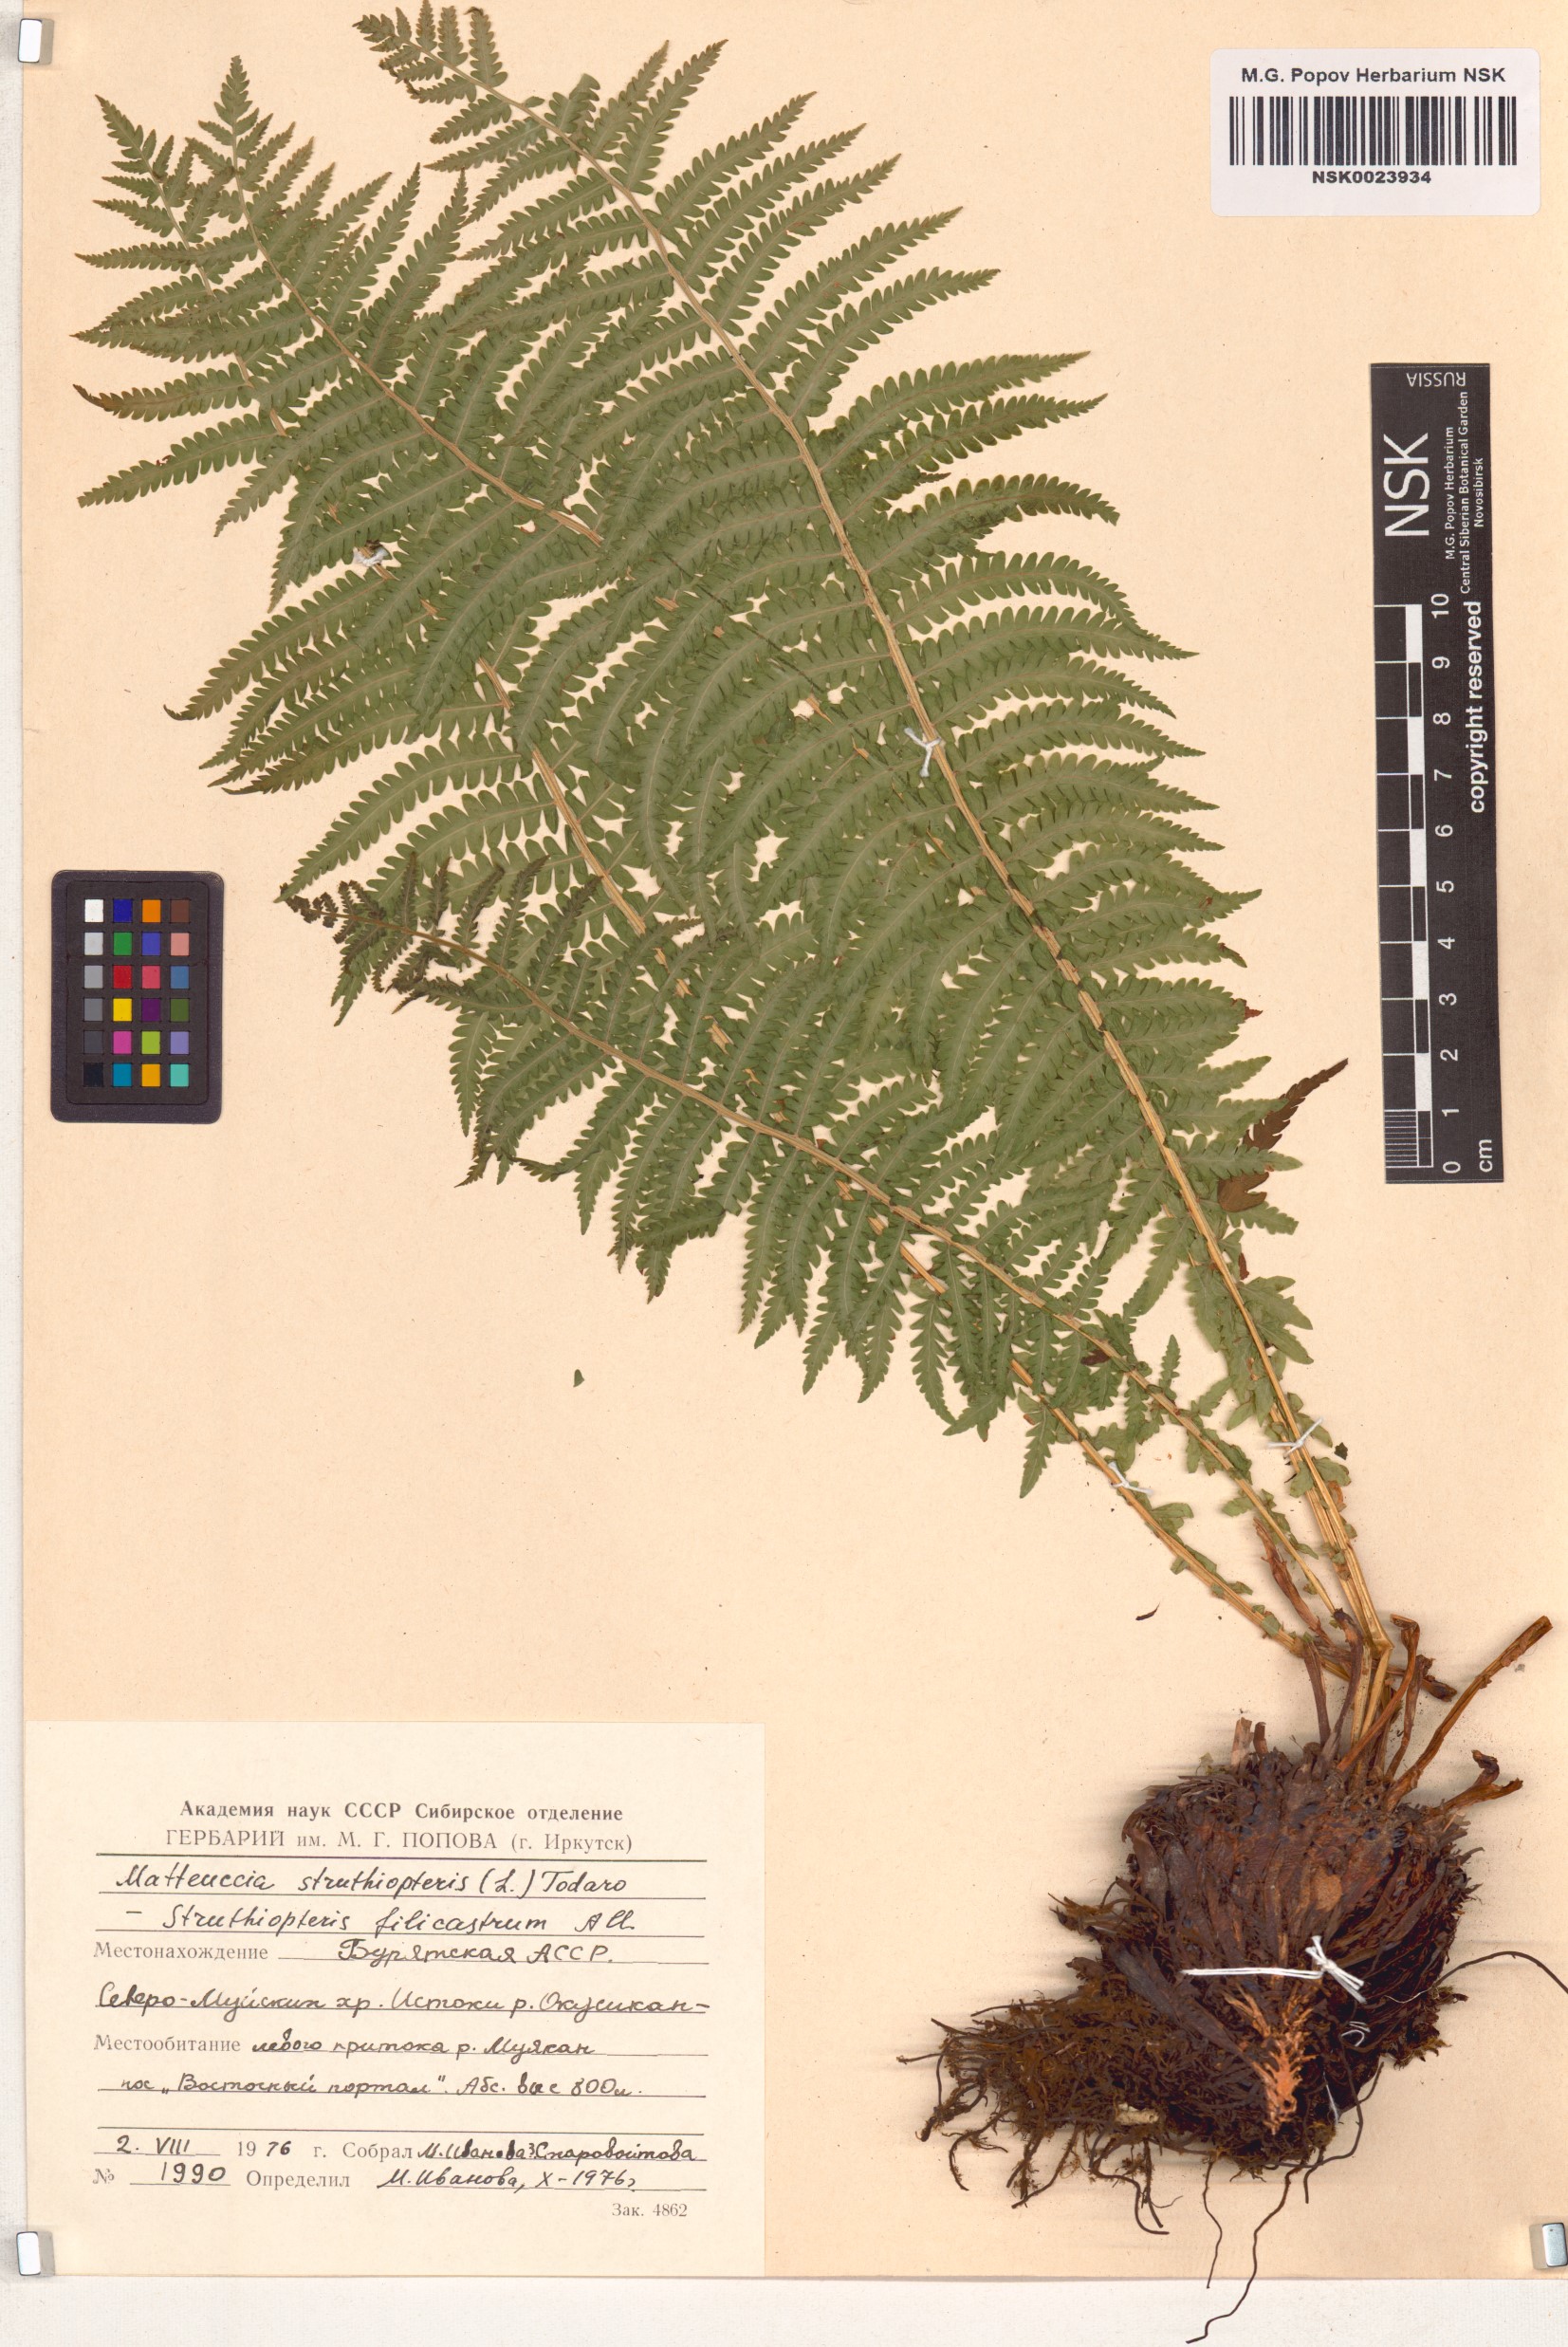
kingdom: Plantae
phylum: Tracheophyta
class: Polypodiopsida
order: Polypodiales
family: Onocleaceae
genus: Matteuccia
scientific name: Matteuccia struthiopteris
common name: Ostrich fern
